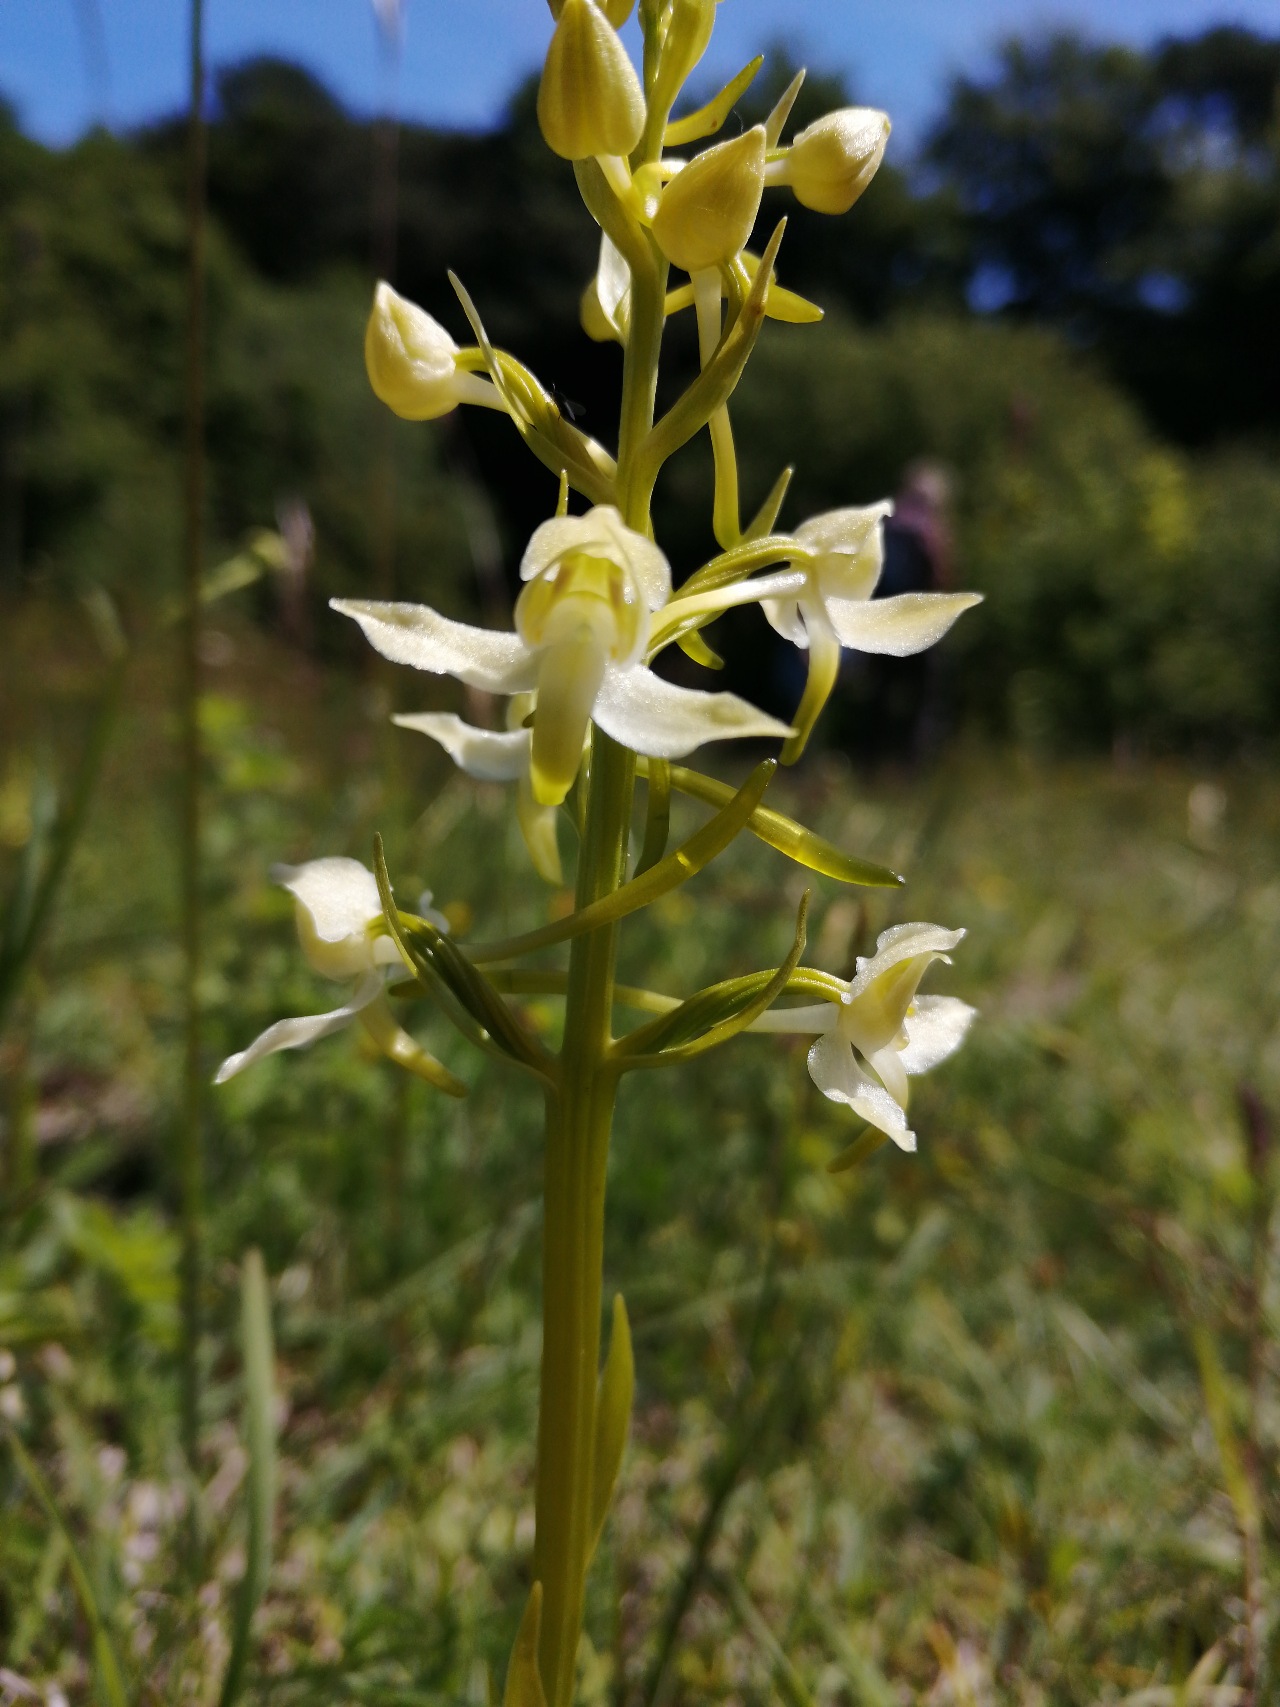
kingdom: Plantae
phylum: Tracheophyta
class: Liliopsida
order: Asparagales
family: Orchidaceae
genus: Platanthera
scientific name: Platanthera chlorantha
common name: Skov-gøgelilje
